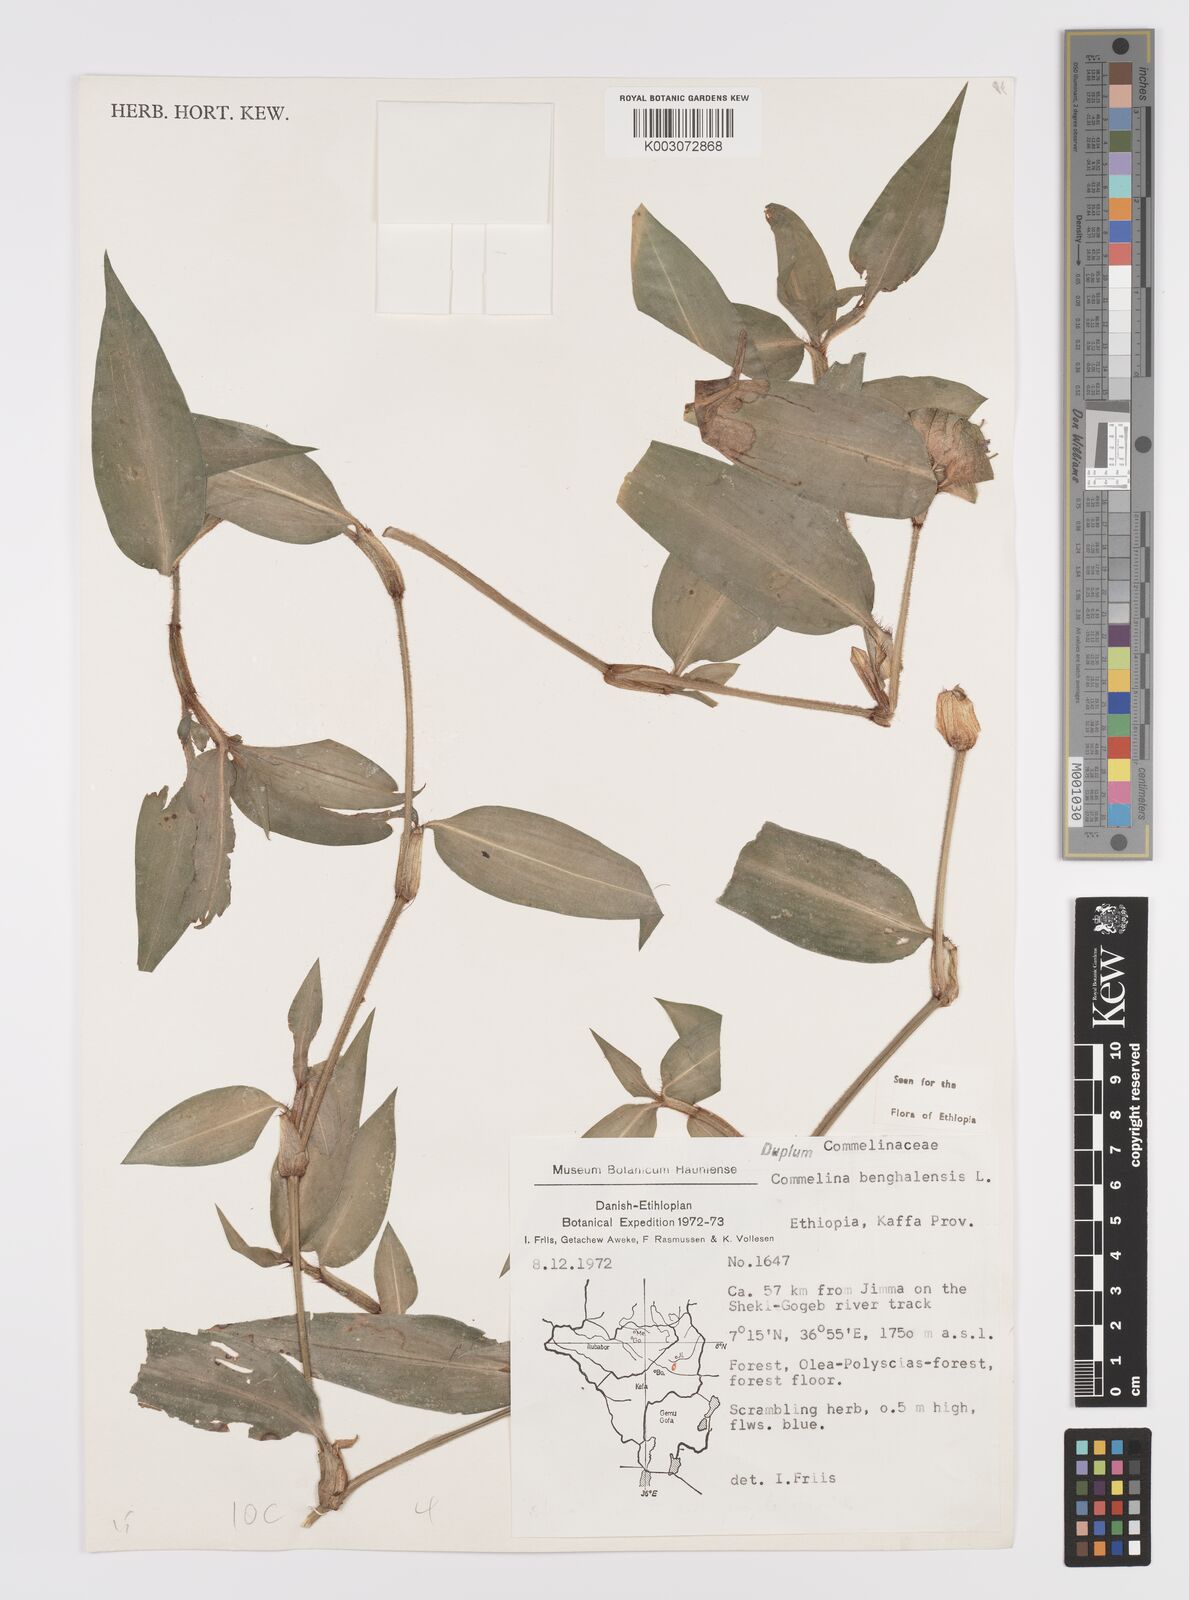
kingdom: Plantae
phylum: Tracheophyta
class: Liliopsida
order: Commelinales
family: Commelinaceae
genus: Commelina
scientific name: Commelina benghalensis
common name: Jio
